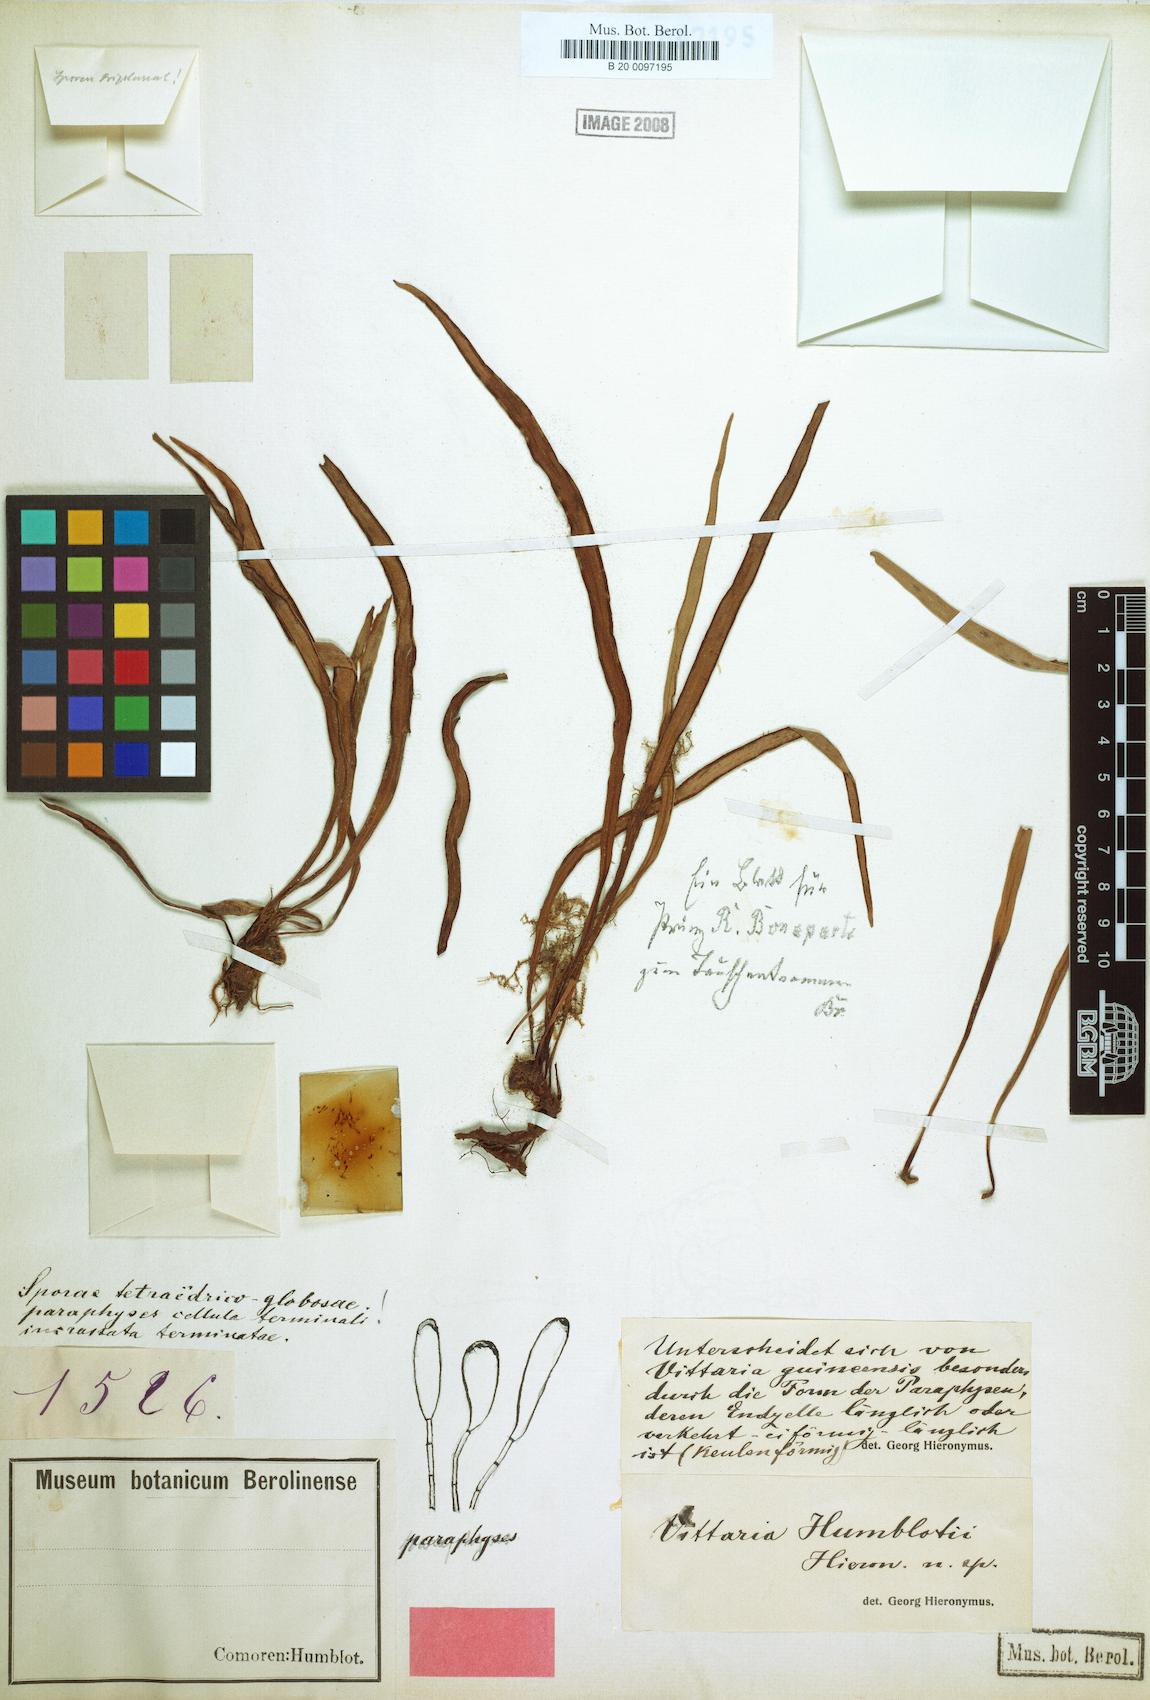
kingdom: Plantae
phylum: Tracheophyta
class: Polypodiopsida
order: Polypodiales
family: Pteridaceae
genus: Haplopteris
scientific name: Haplopteris humblotii
